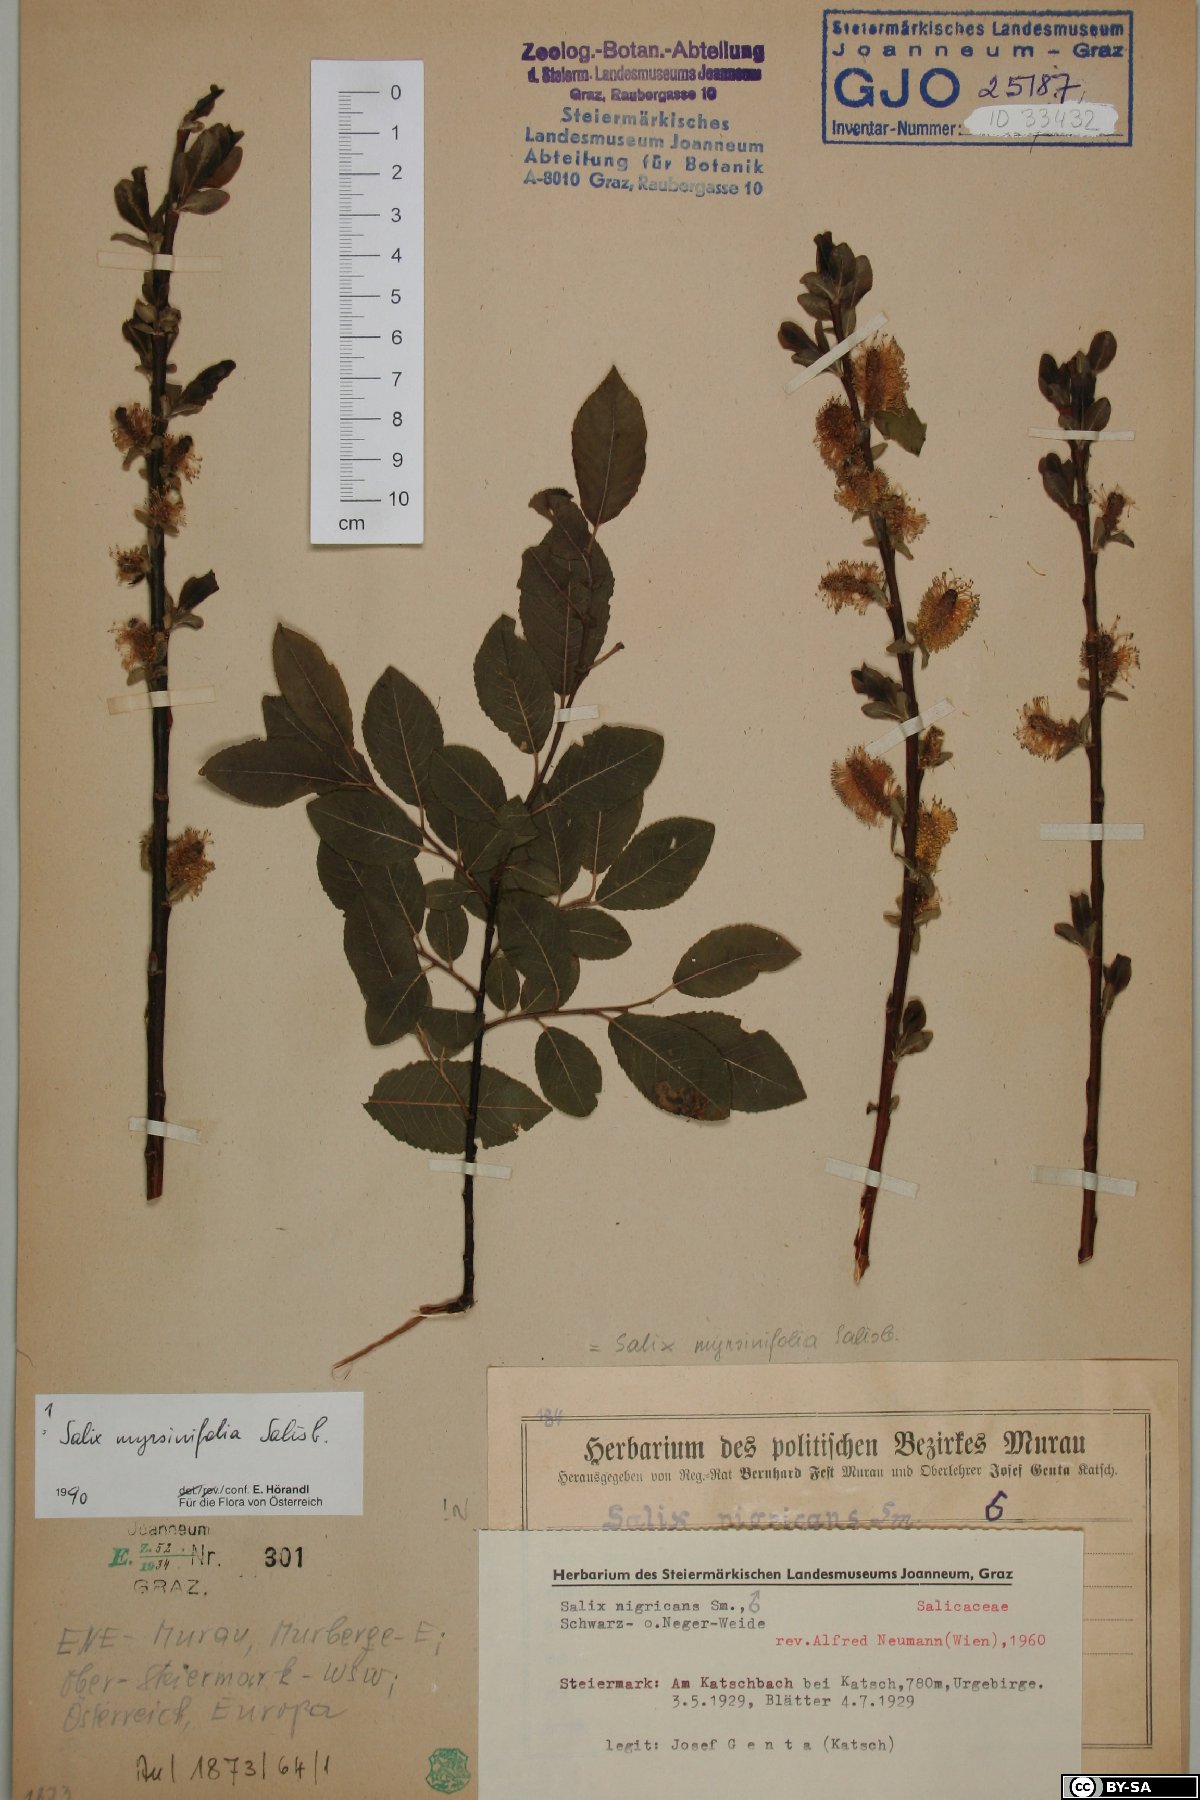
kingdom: Plantae
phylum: Tracheophyta
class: Magnoliopsida
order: Malpighiales
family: Salicaceae
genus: Salix
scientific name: Salix myrsinifolia
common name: Dark-leaved willow
